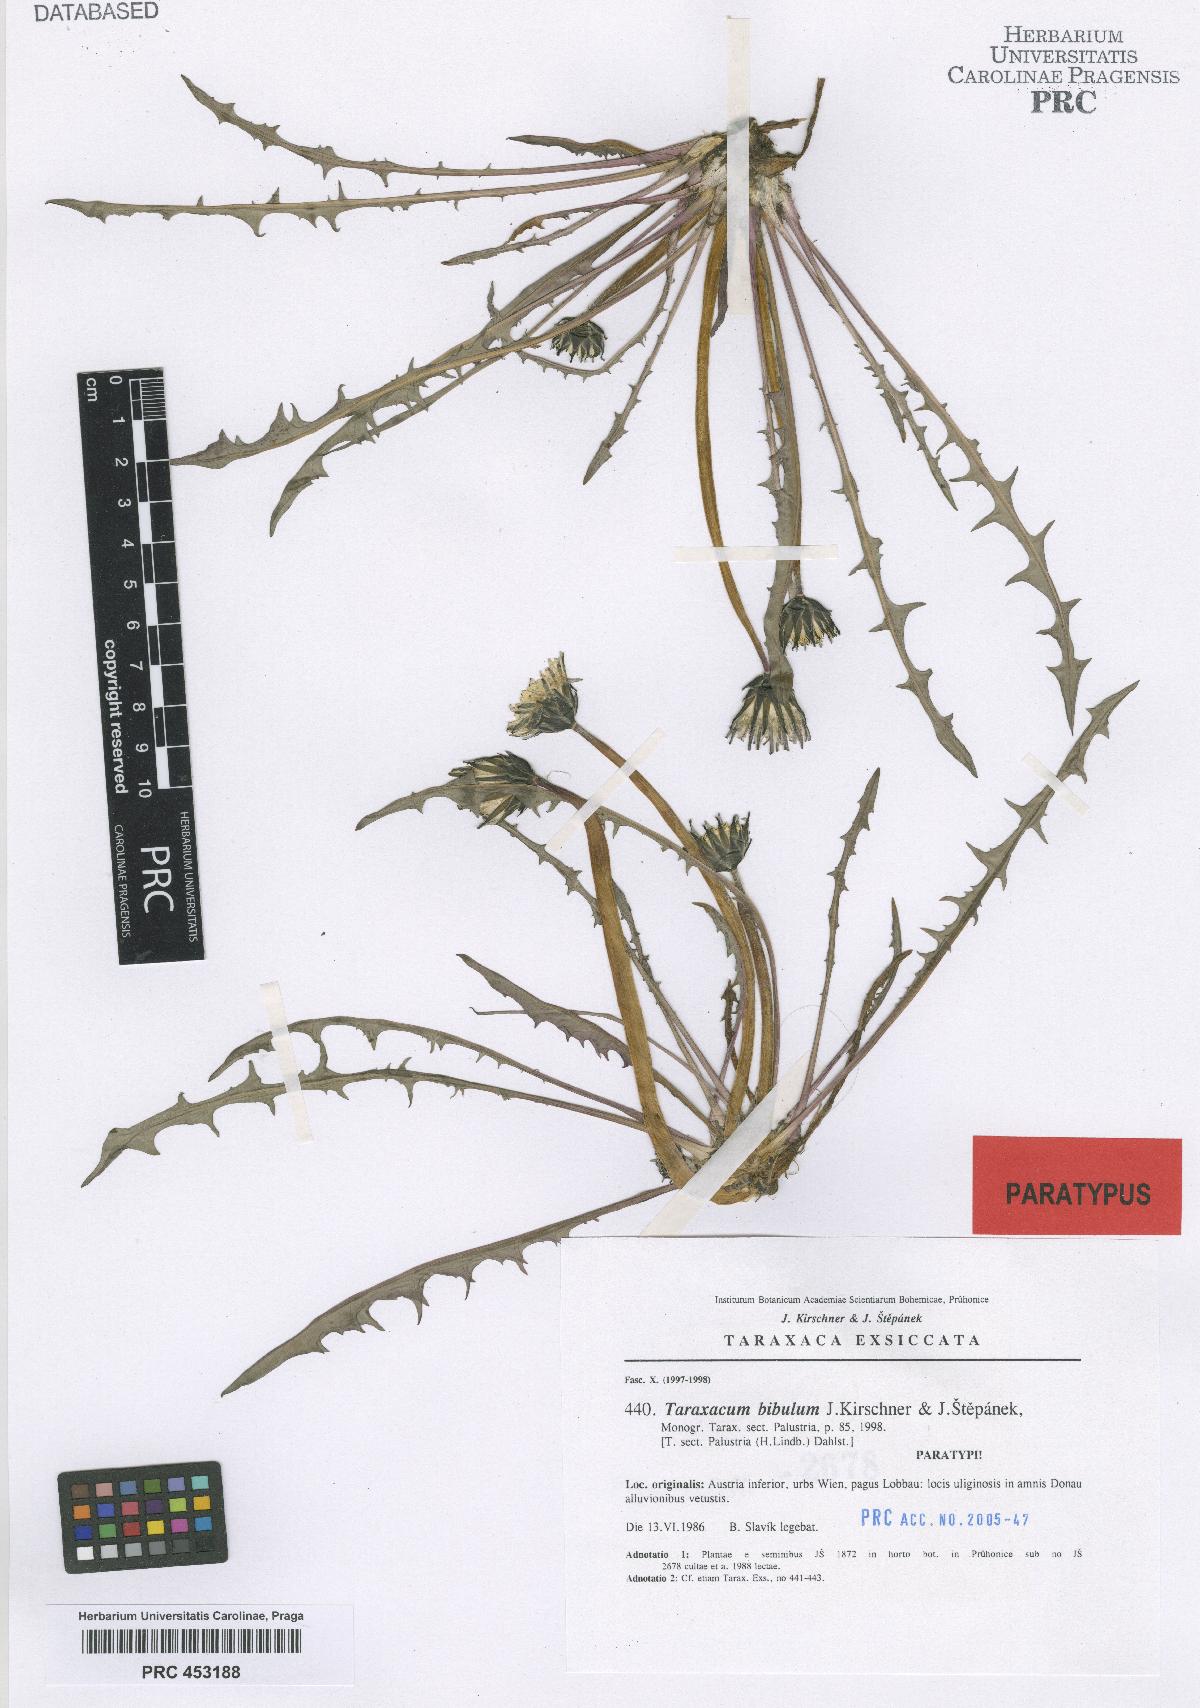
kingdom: Plantae
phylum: Tracheophyta
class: Magnoliopsida
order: Asterales
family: Asteraceae
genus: Taraxacum
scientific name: Taraxacum bibulum
